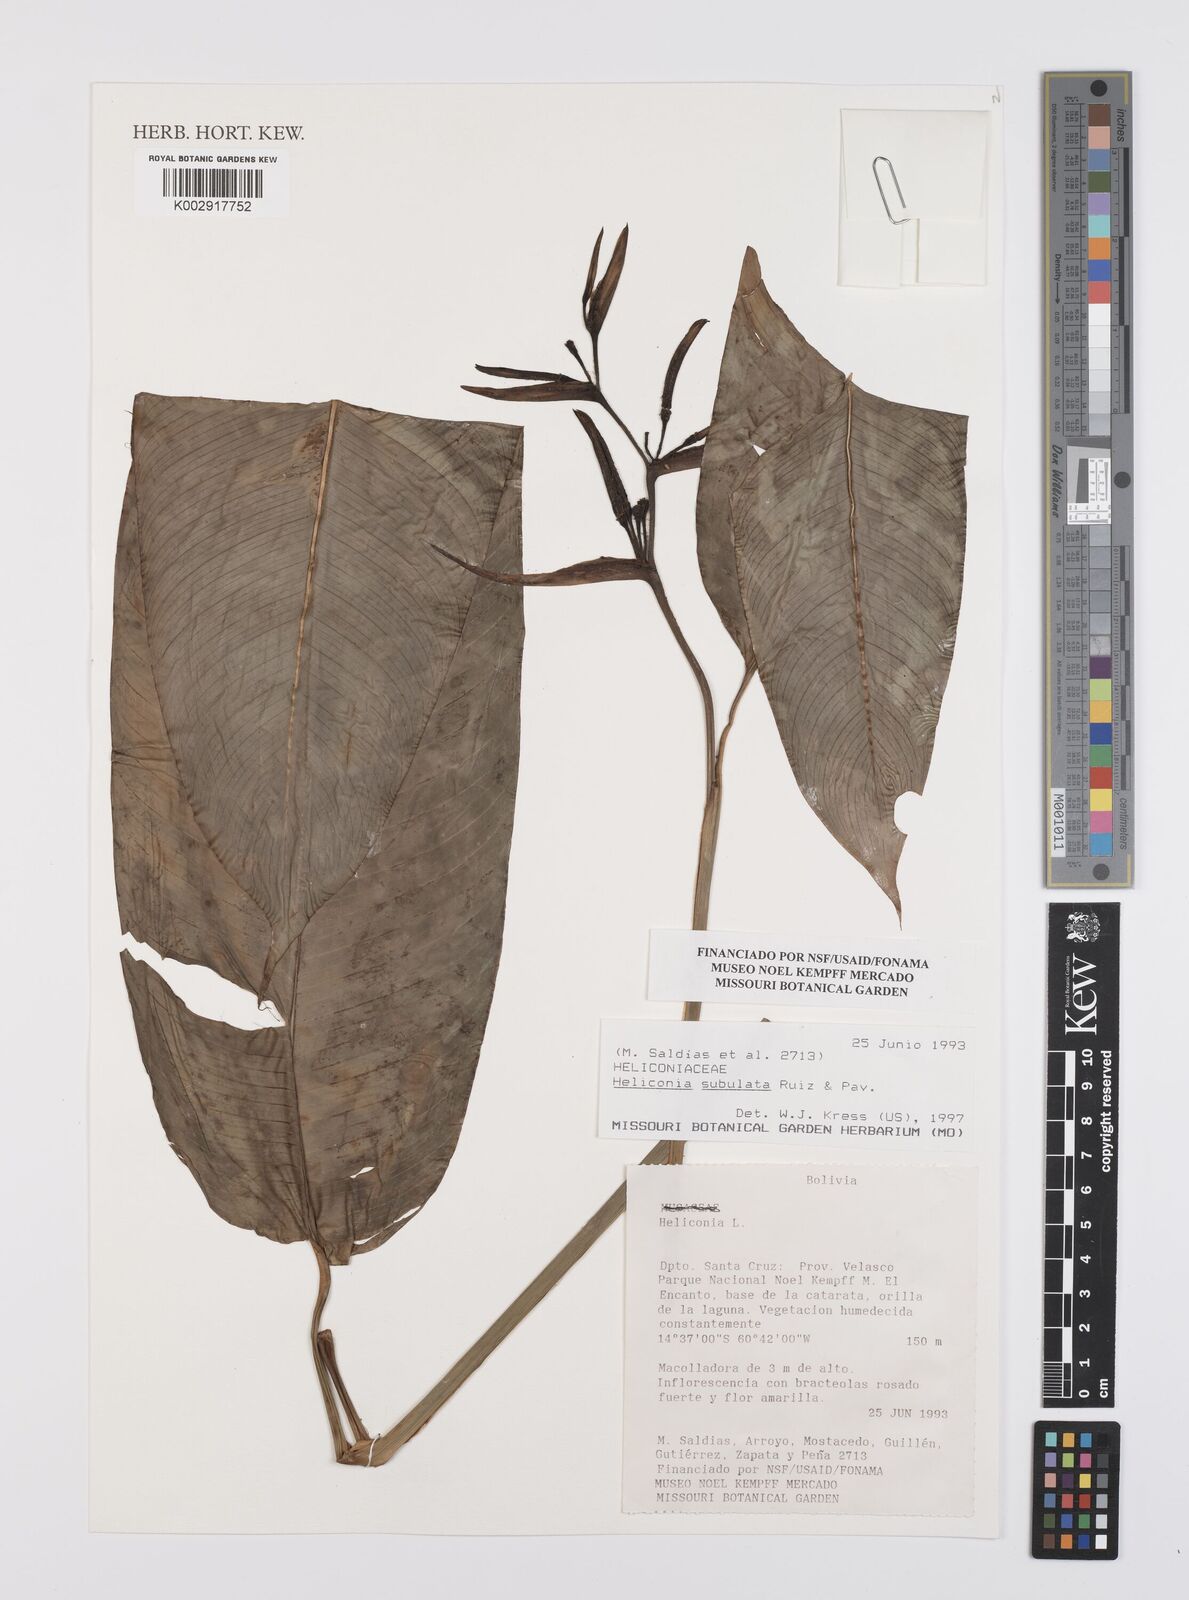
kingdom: Plantae
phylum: Tracheophyta
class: Liliopsida
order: Zingiberales
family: Heliconiaceae
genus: Heliconia
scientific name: Heliconia subulata
